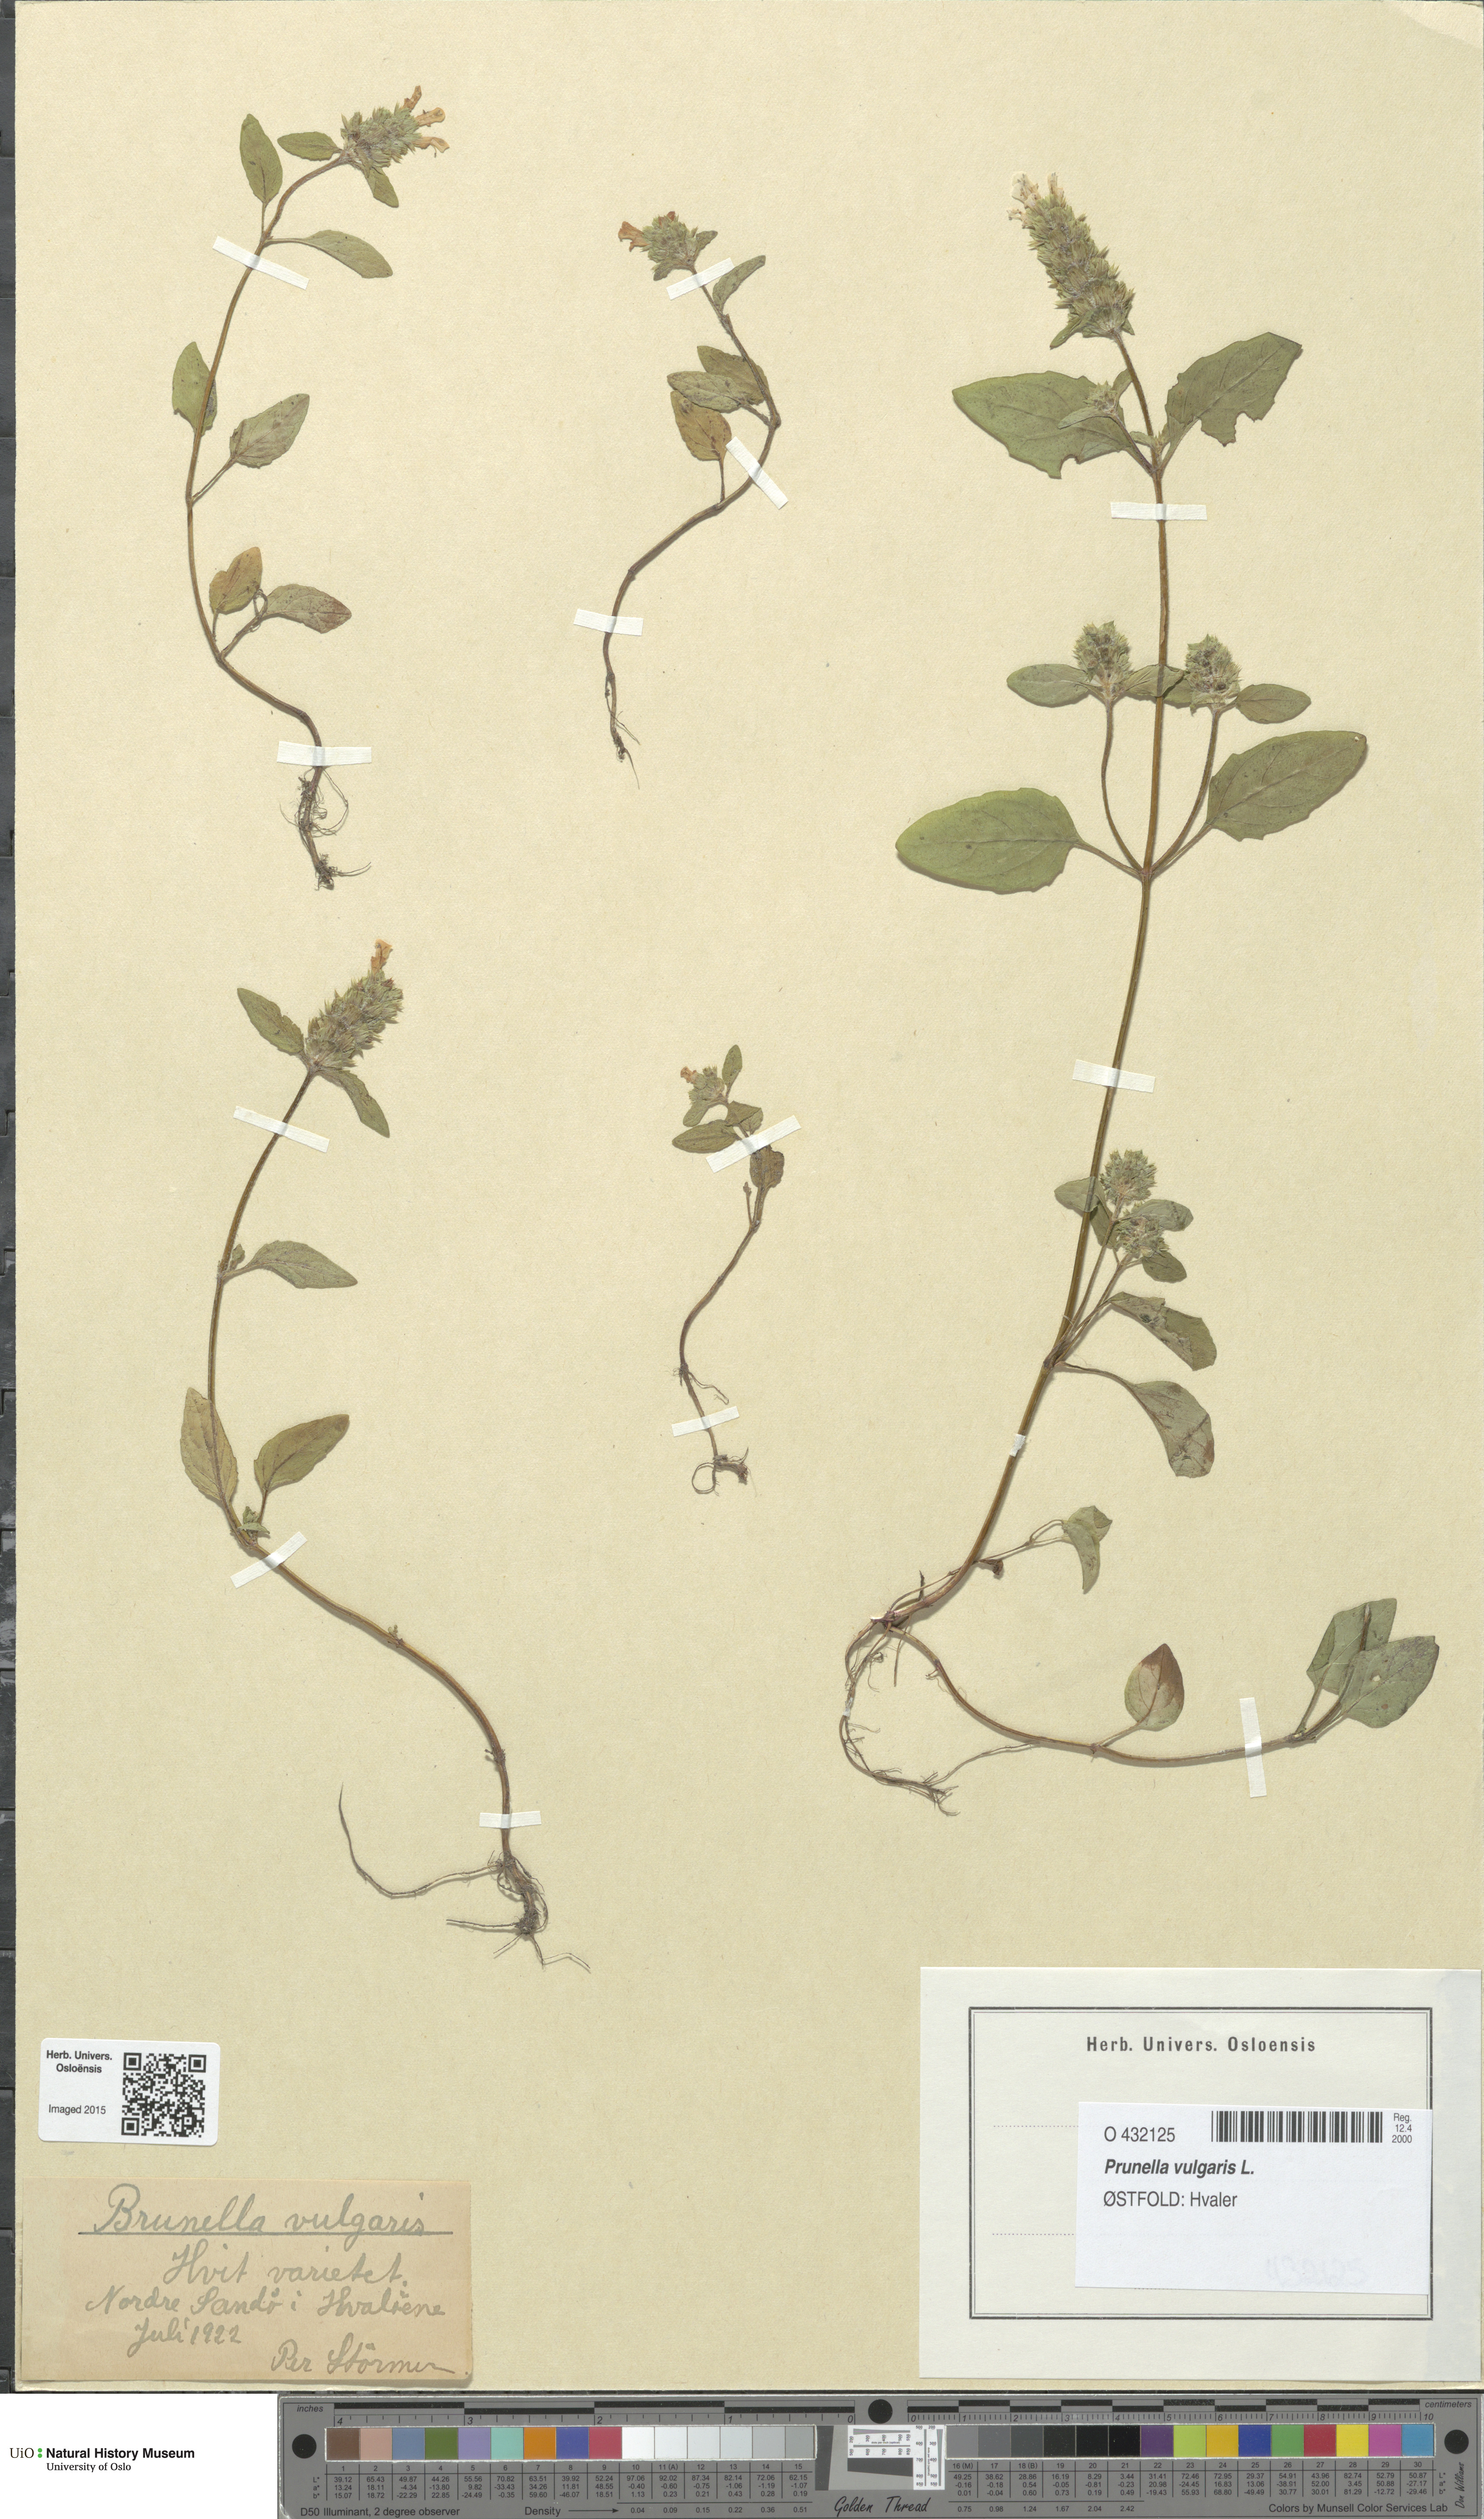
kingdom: Plantae
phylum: Tracheophyta
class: Magnoliopsida
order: Lamiales
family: Lamiaceae
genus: Prunella
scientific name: Prunella vulgaris
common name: Heal-all
